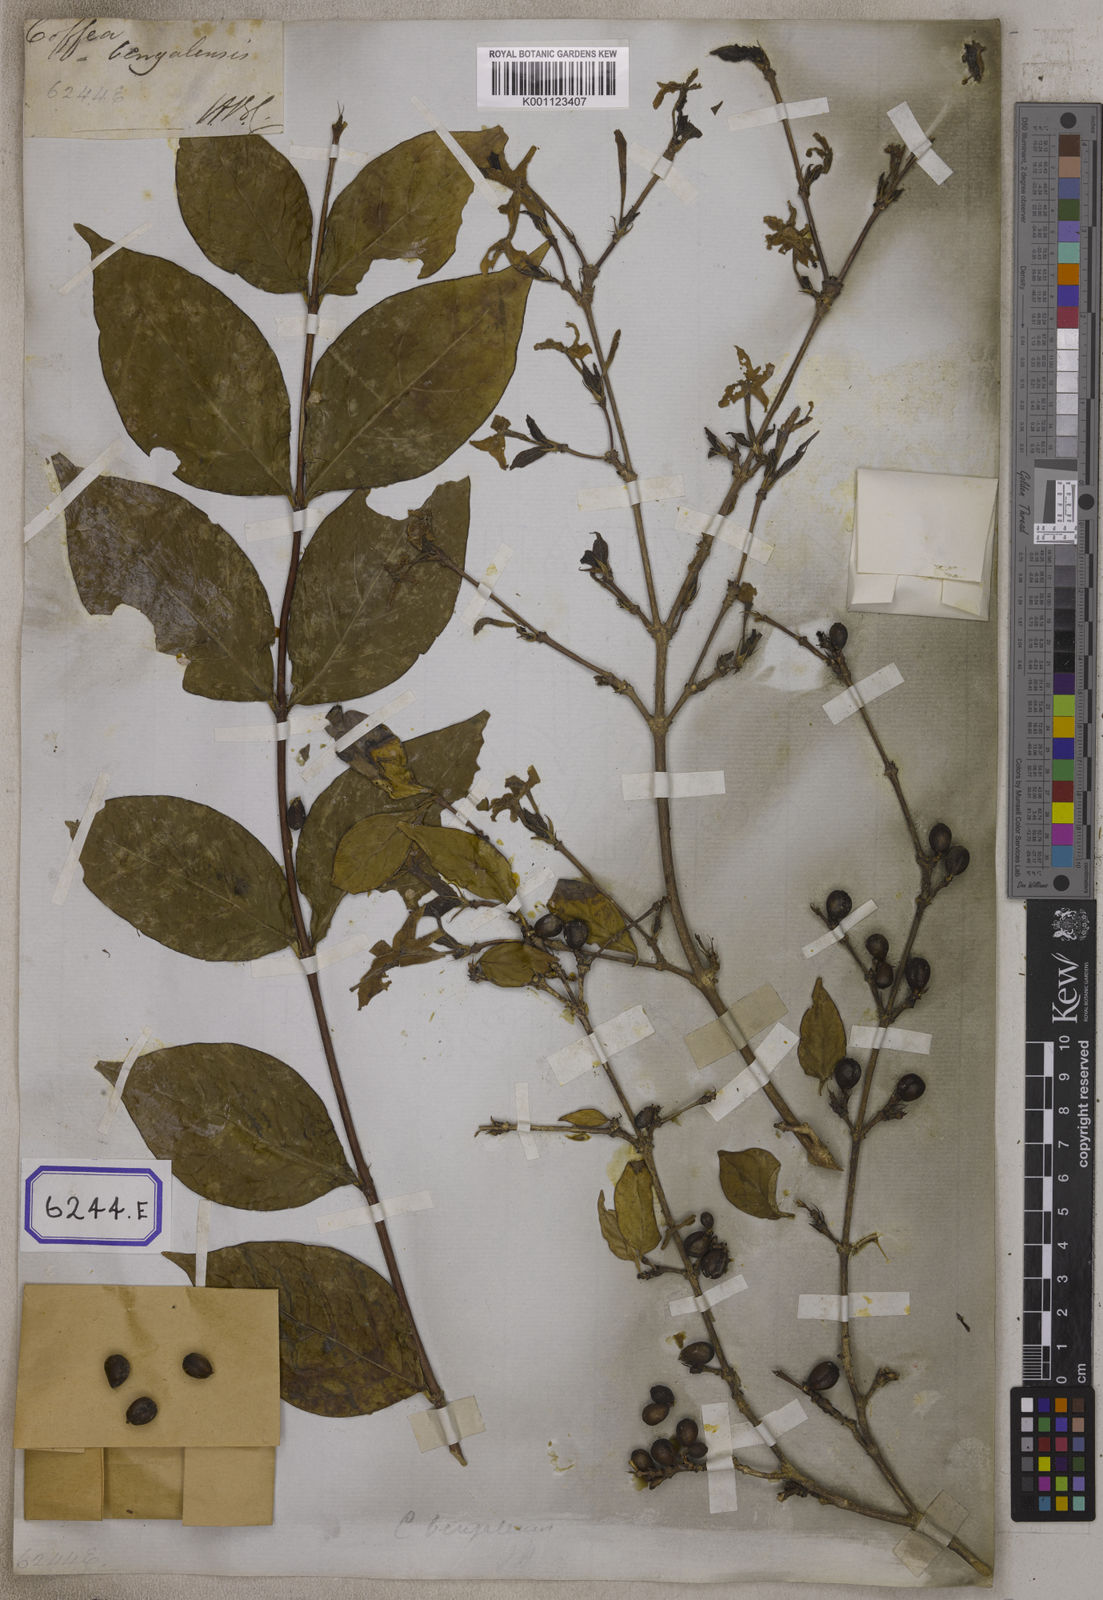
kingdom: Plantae
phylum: Tracheophyta
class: Magnoliopsida
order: Gentianales
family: Rubiaceae
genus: Coffea
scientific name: Coffea
